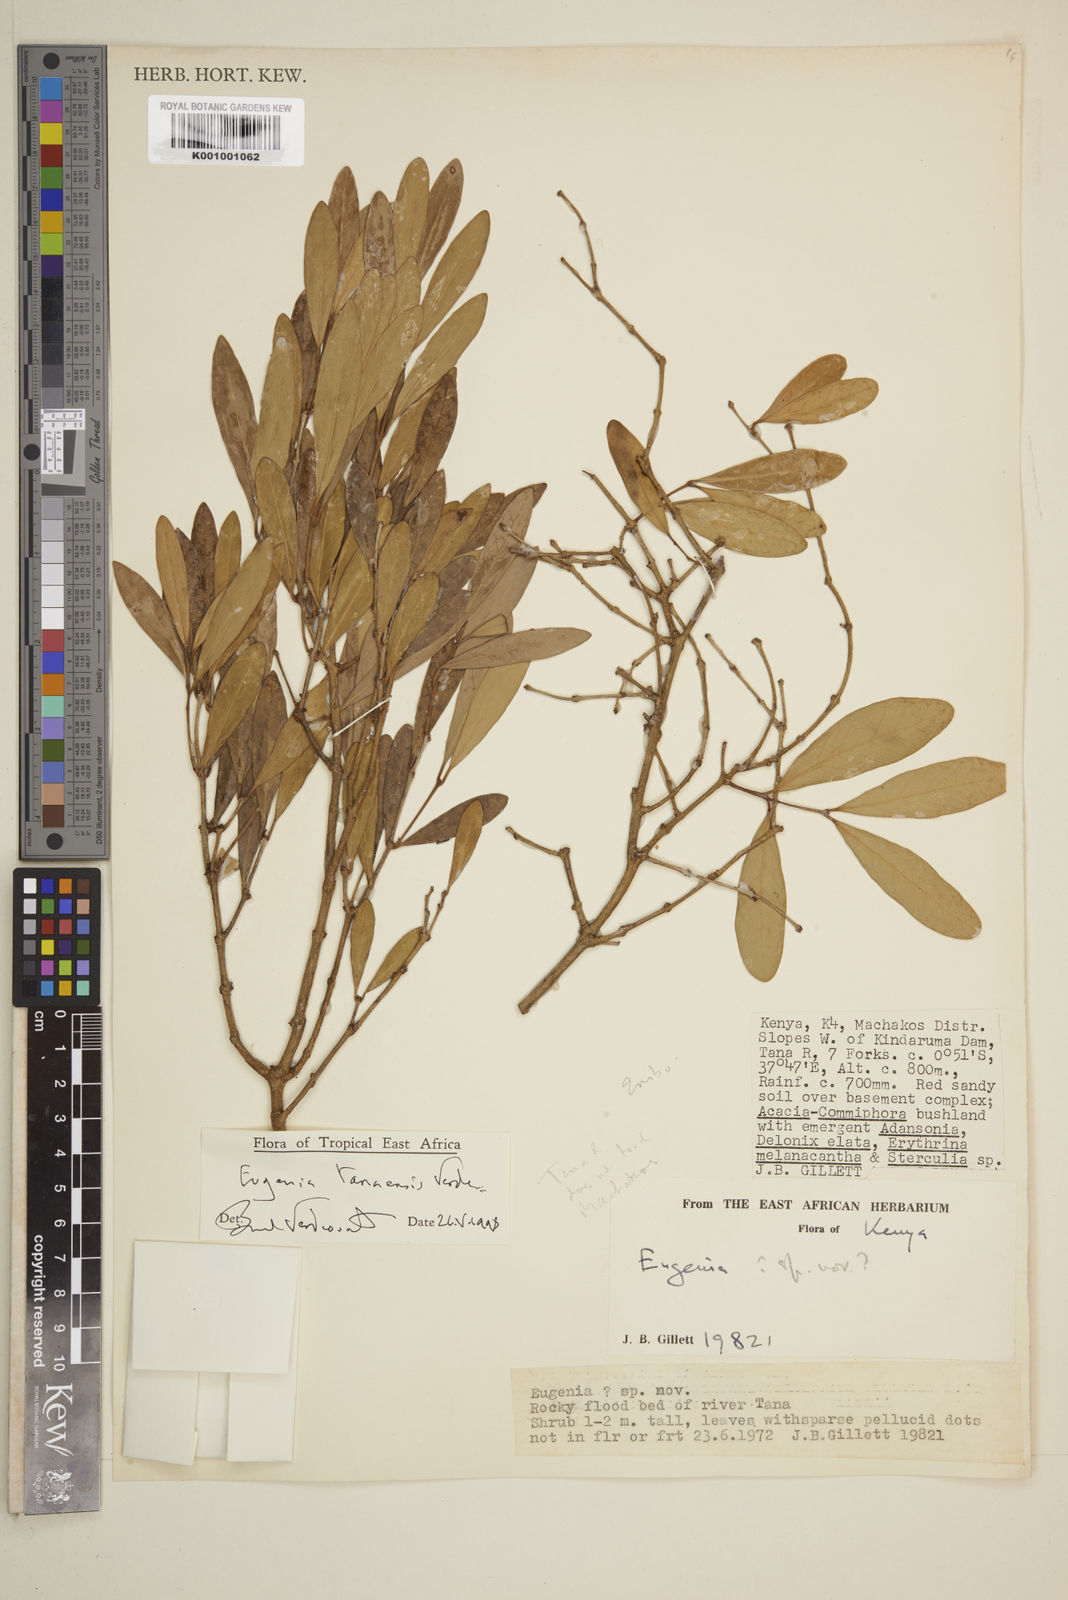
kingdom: Plantae
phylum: Tracheophyta
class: Magnoliopsida
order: Myrtales
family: Myrtaceae
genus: Eugenia
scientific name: Eugenia tanaensis
